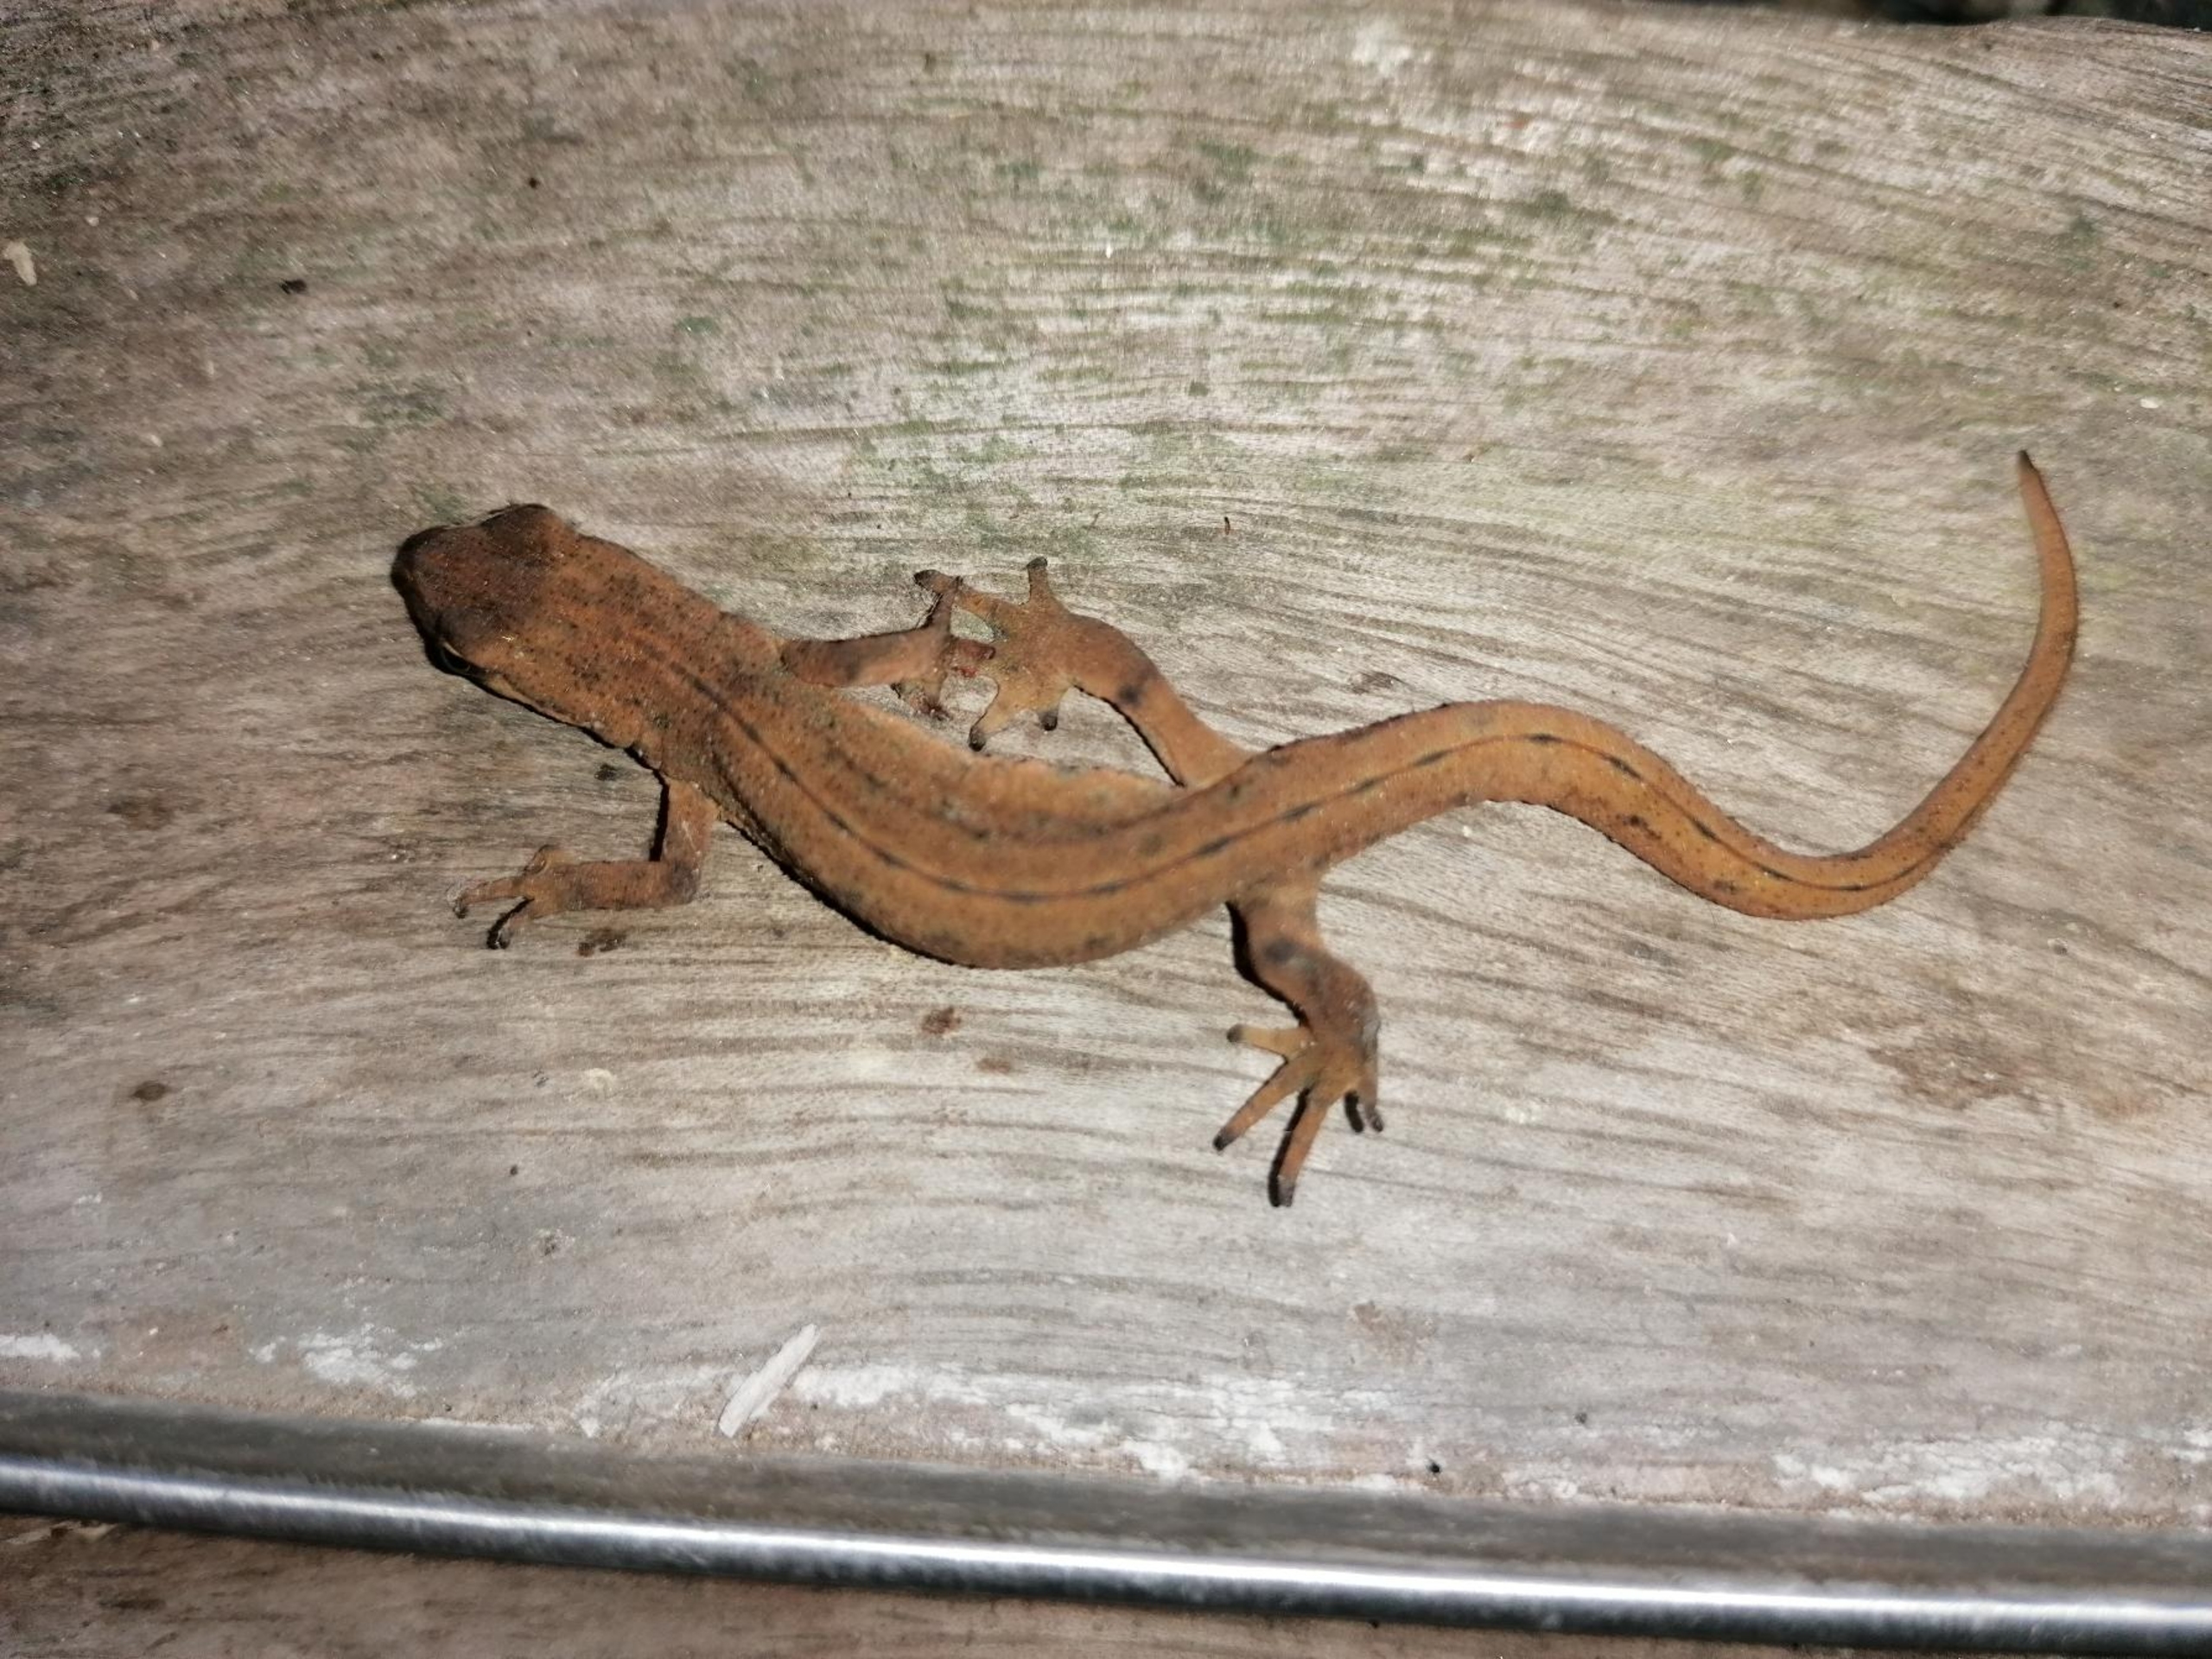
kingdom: Animalia
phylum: Chordata
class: Amphibia
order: Caudata
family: Salamandridae
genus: Lissotriton
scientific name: Lissotriton vulgaris
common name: Lille vandsalamander
